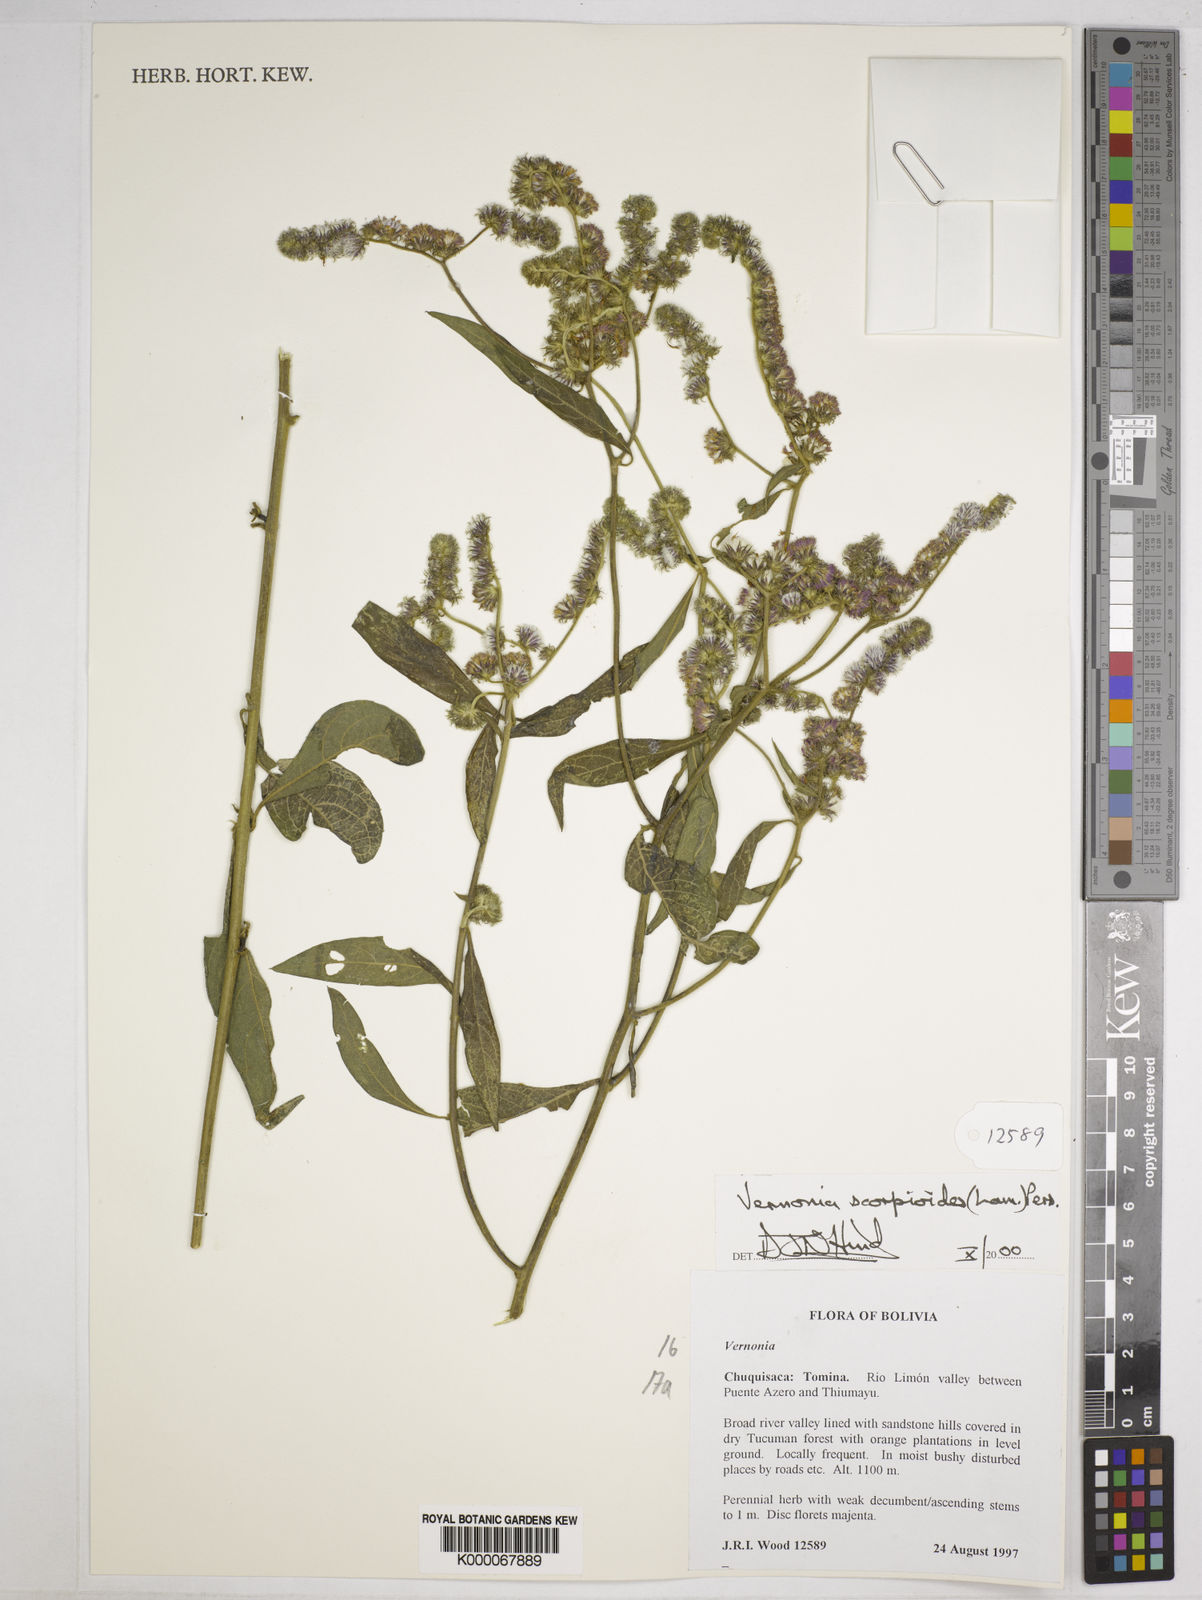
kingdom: Plantae
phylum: Tracheophyta
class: Magnoliopsida
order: Asterales
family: Asteraceae
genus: Cyrtocymura
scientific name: Cyrtocymura scorpioides
